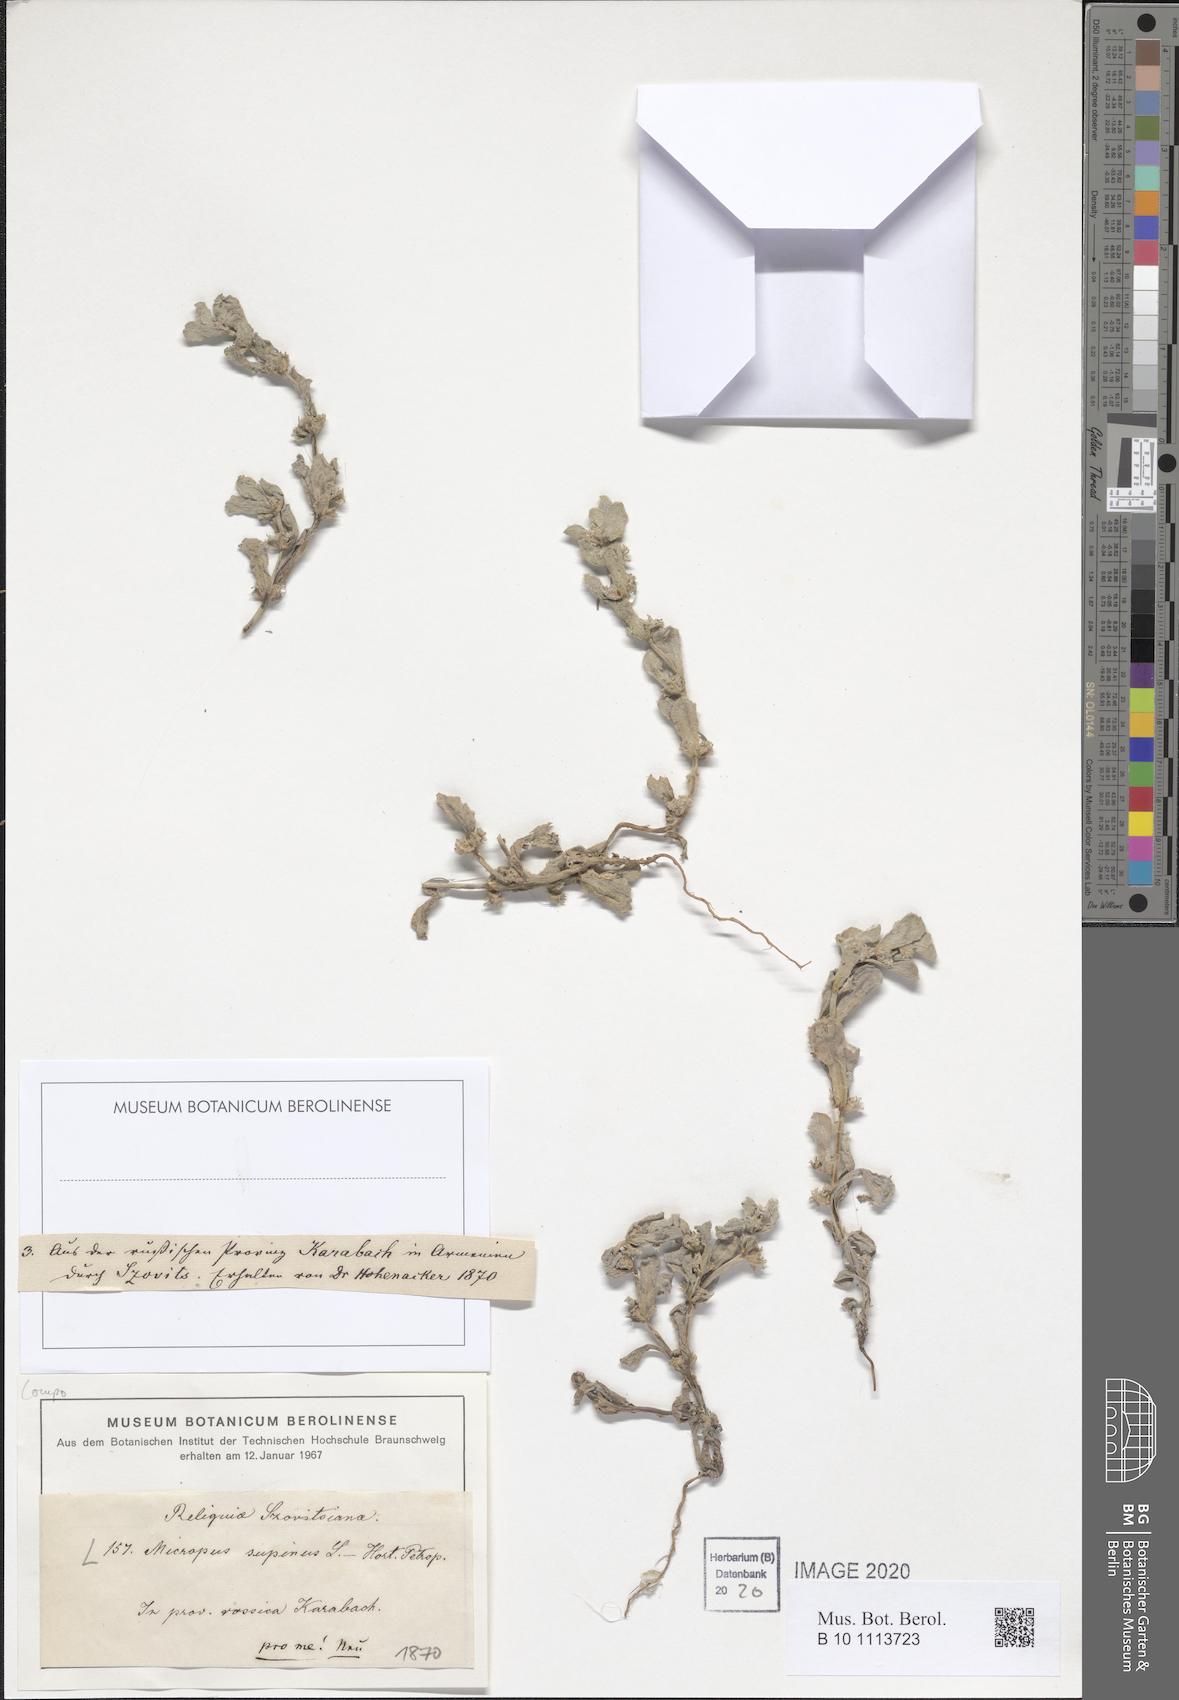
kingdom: Plantae
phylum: Tracheophyta
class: Magnoliopsida
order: Asterales
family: Asteraceae
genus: Micropus
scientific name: Micropus supinus
